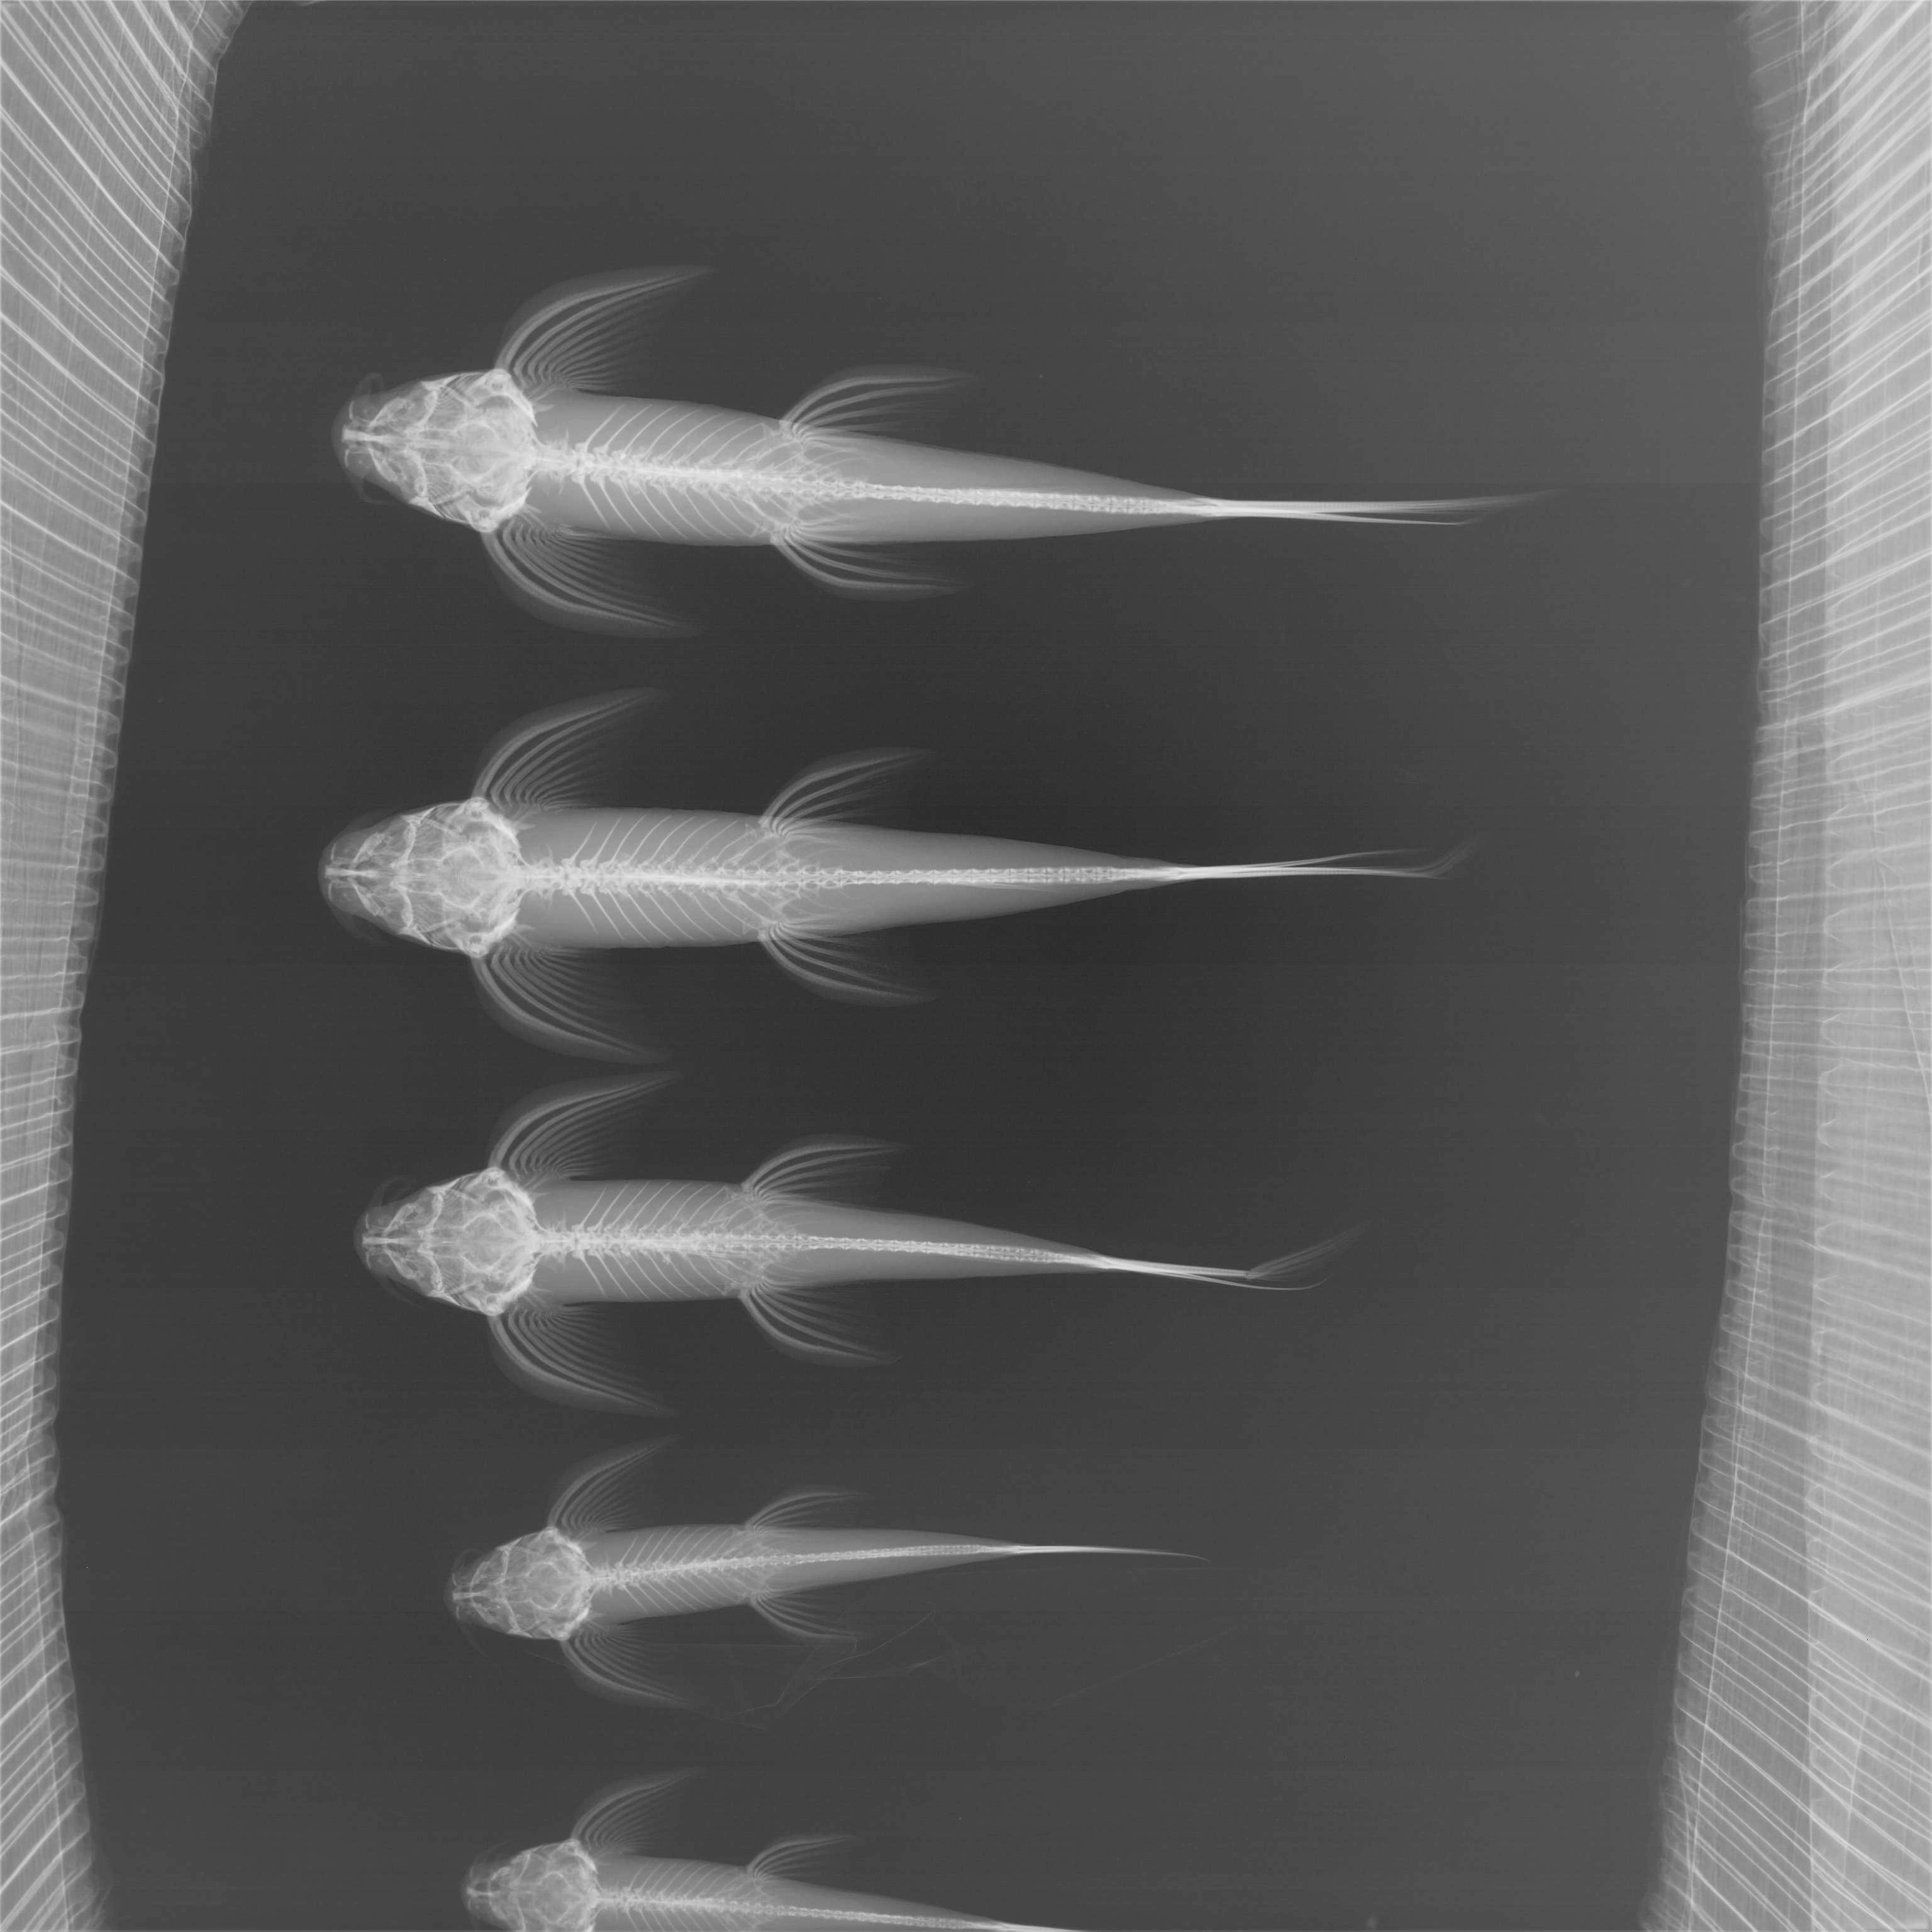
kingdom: Animalia
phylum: Chordata
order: Siluriformes
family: Amphiliidae
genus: Congoglanis
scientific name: Congoglanis alula
